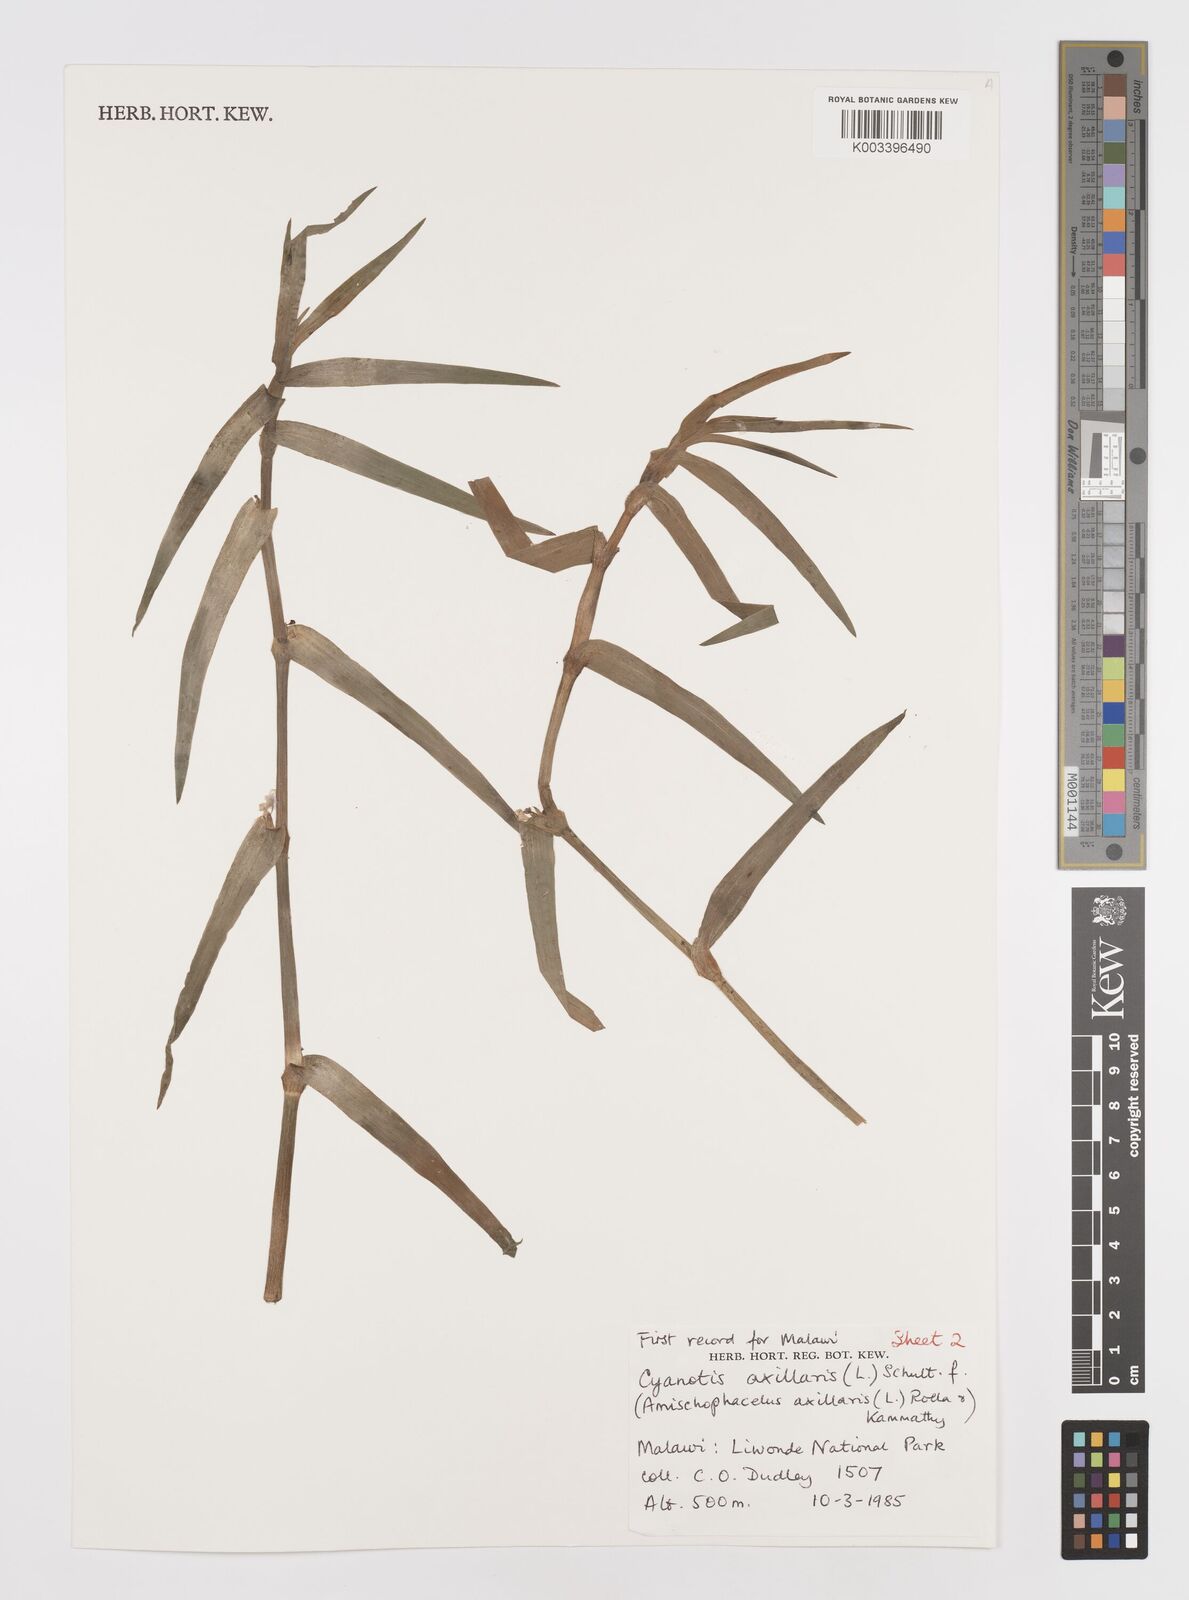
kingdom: Plantae
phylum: Tracheophyta
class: Liliopsida
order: Commelinales
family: Commelinaceae
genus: Cyanotis
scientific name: Cyanotis axillaris
